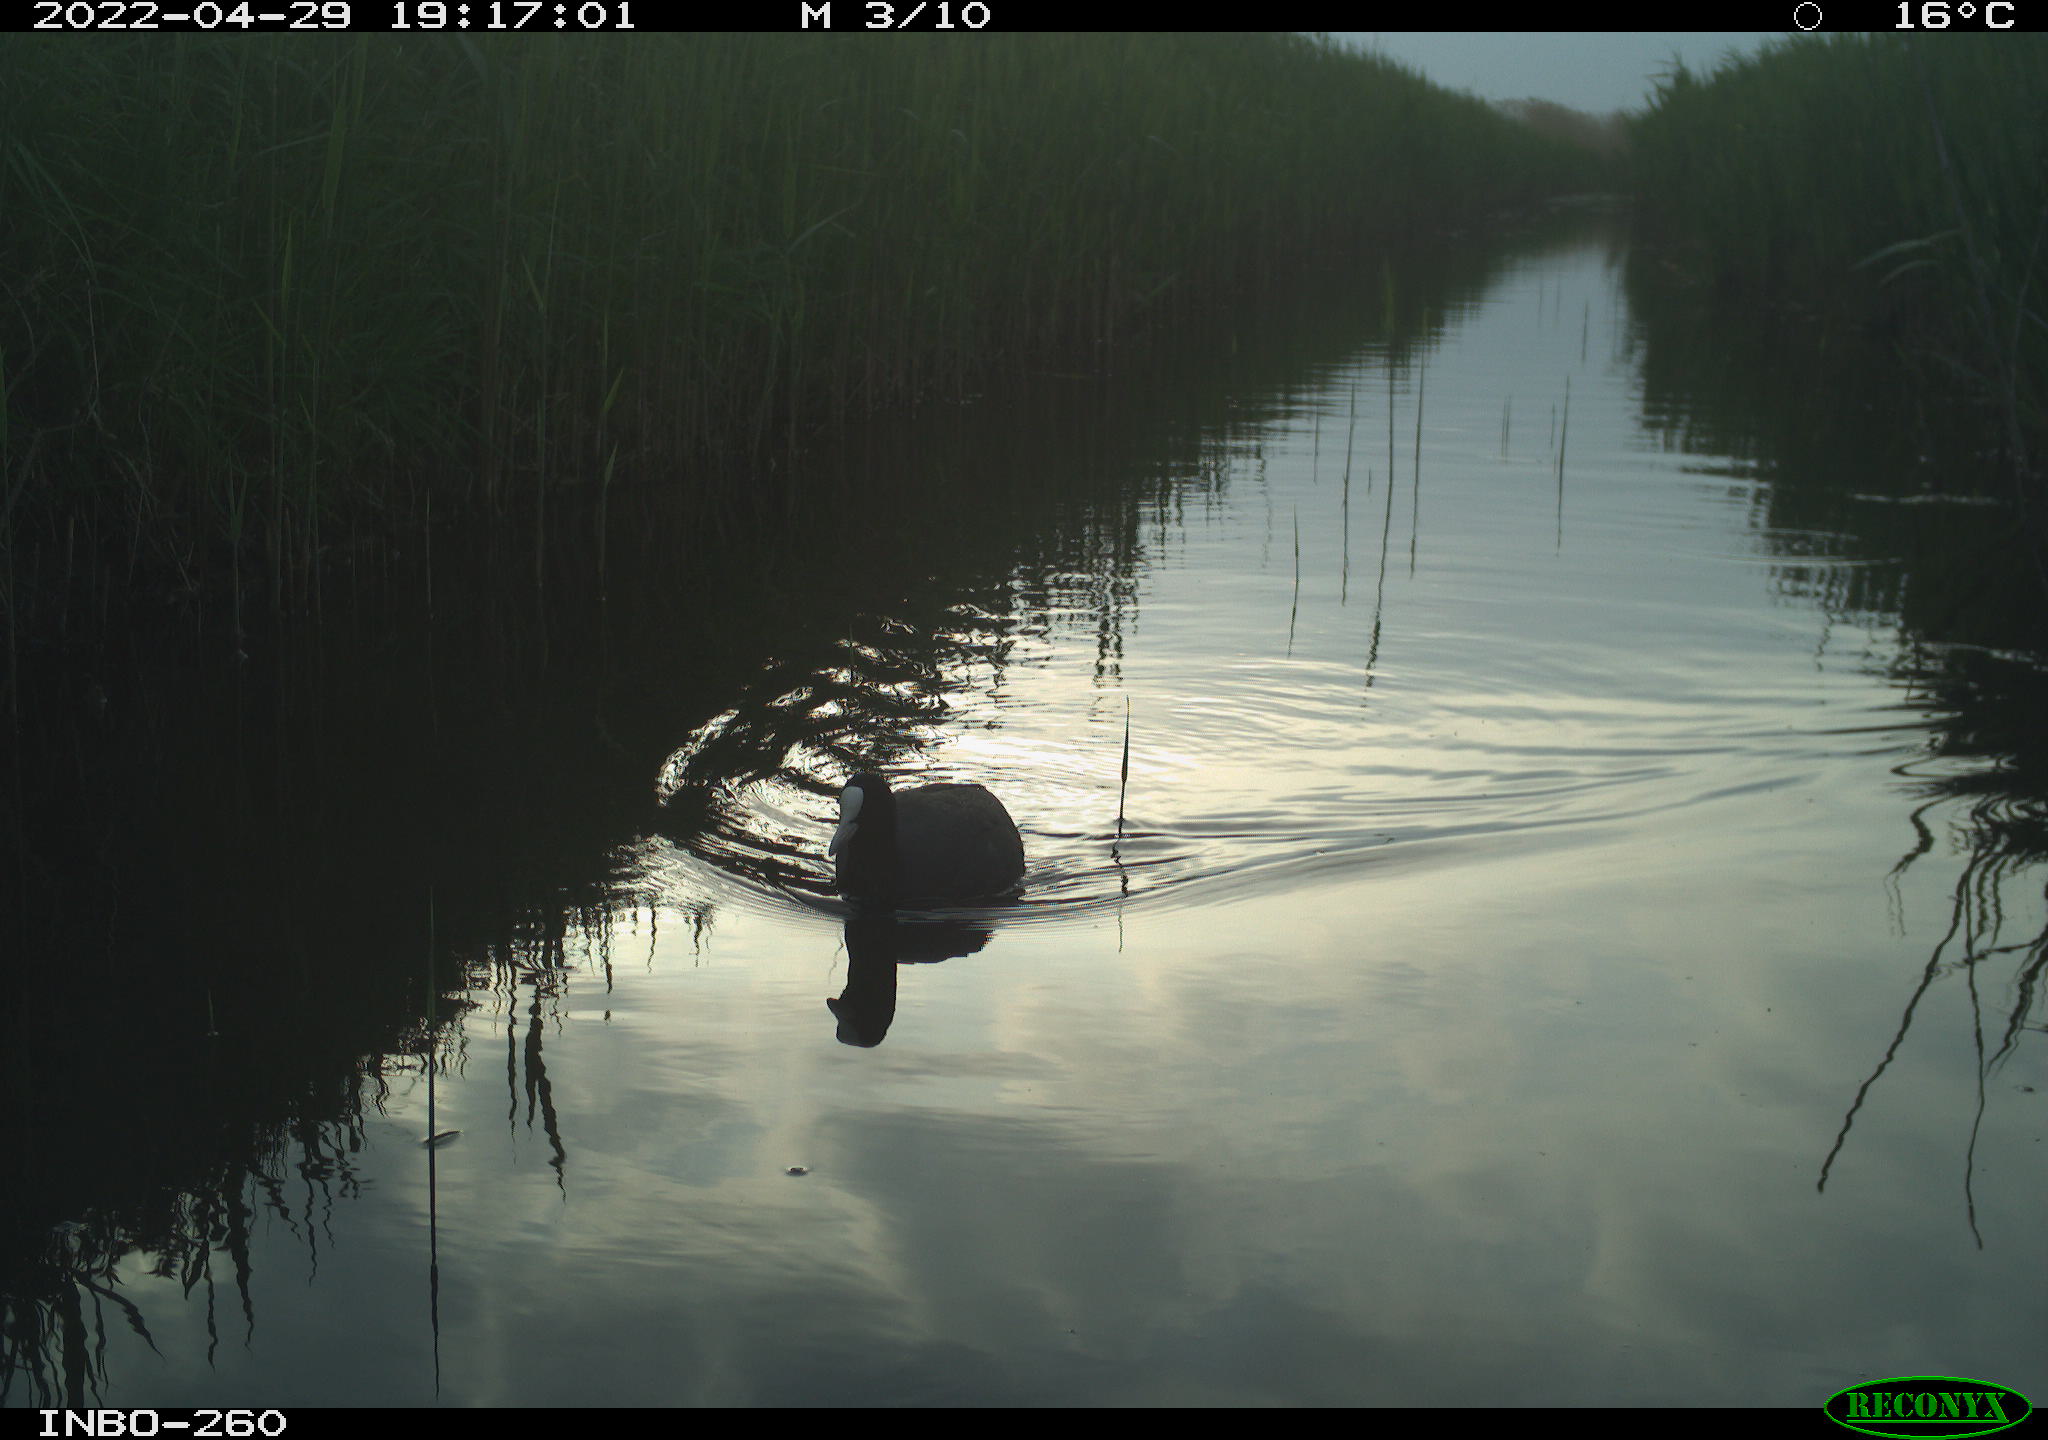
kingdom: Animalia
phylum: Chordata
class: Aves
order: Gruiformes
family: Rallidae
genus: Fulica
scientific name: Fulica atra
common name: Eurasian coot
